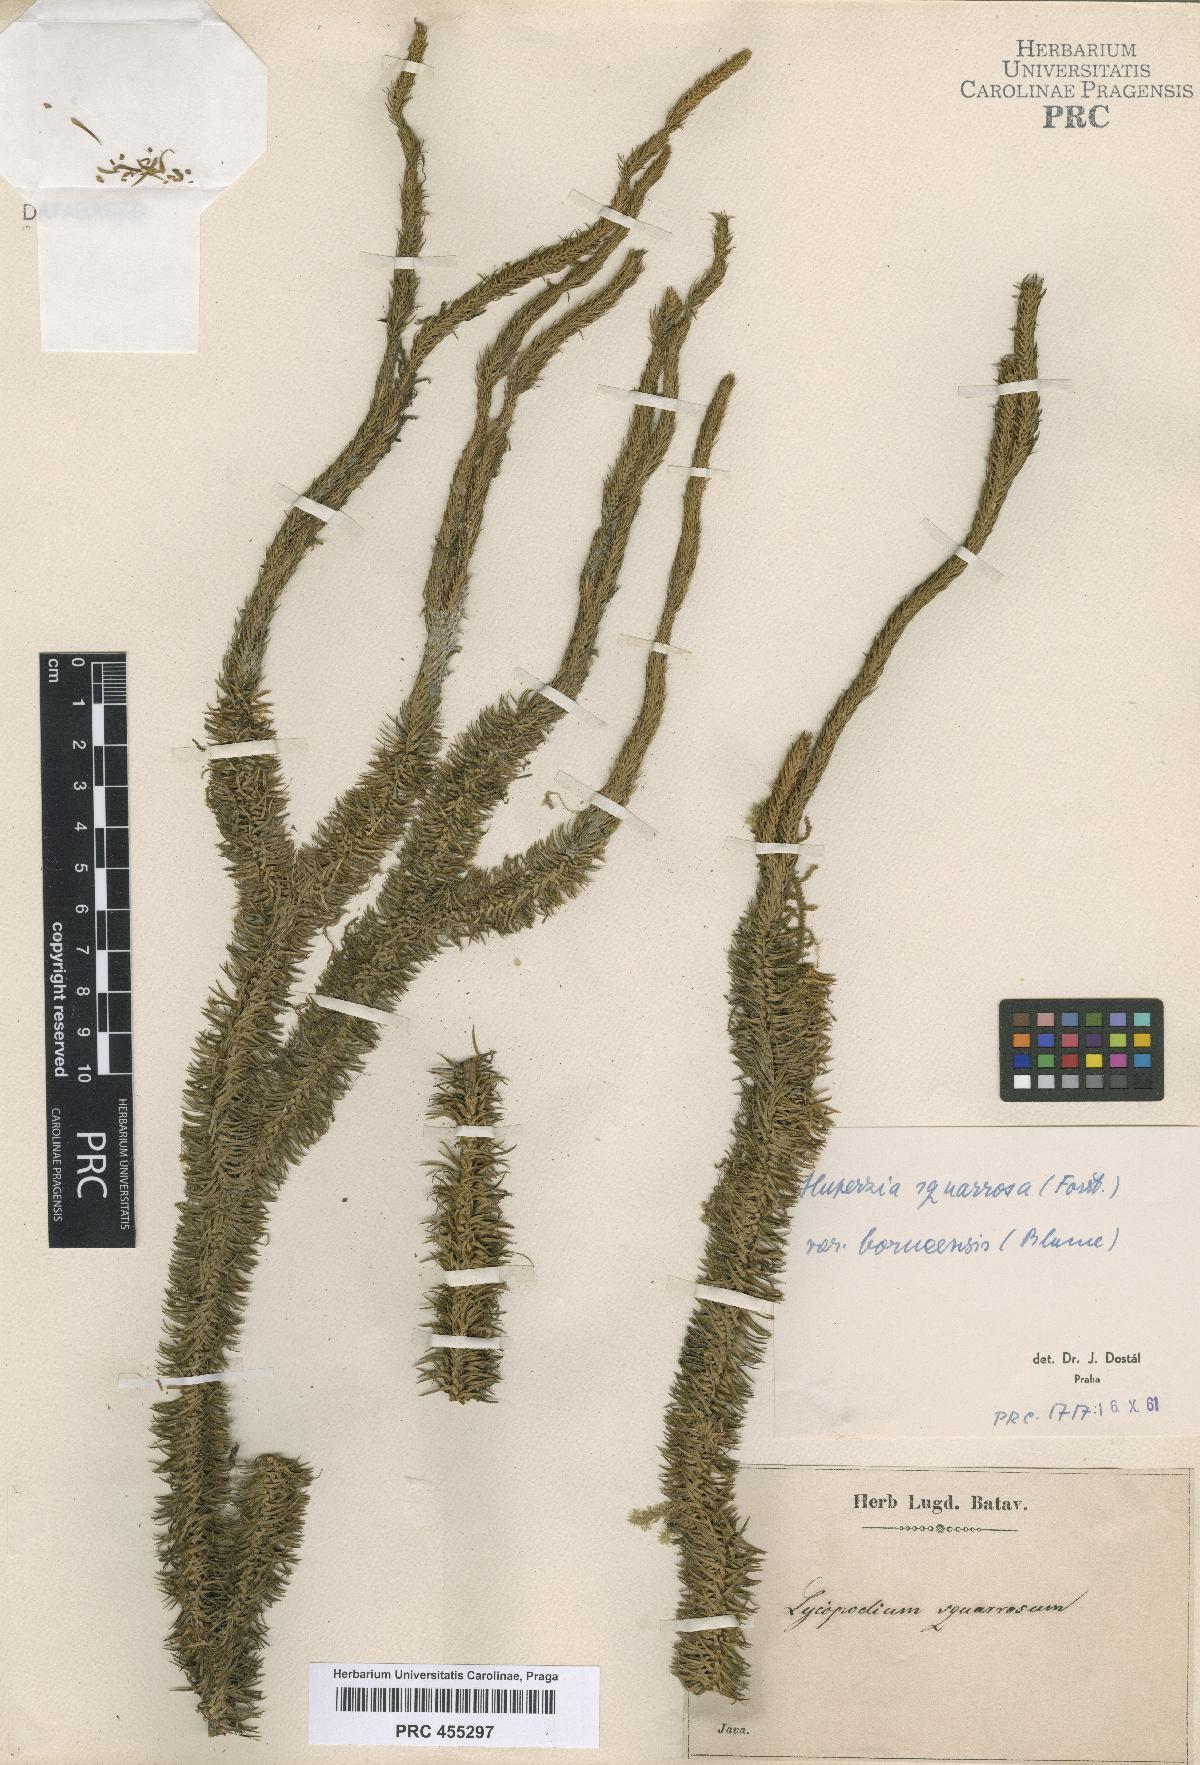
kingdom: Plantae
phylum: Tracheophyta
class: Lycopodiopsida
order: Lycopodiales
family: Lycopodiaceae
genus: Phlegmariurus
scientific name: Phlegmariurus squarrosus
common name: Rock tassel-fern
